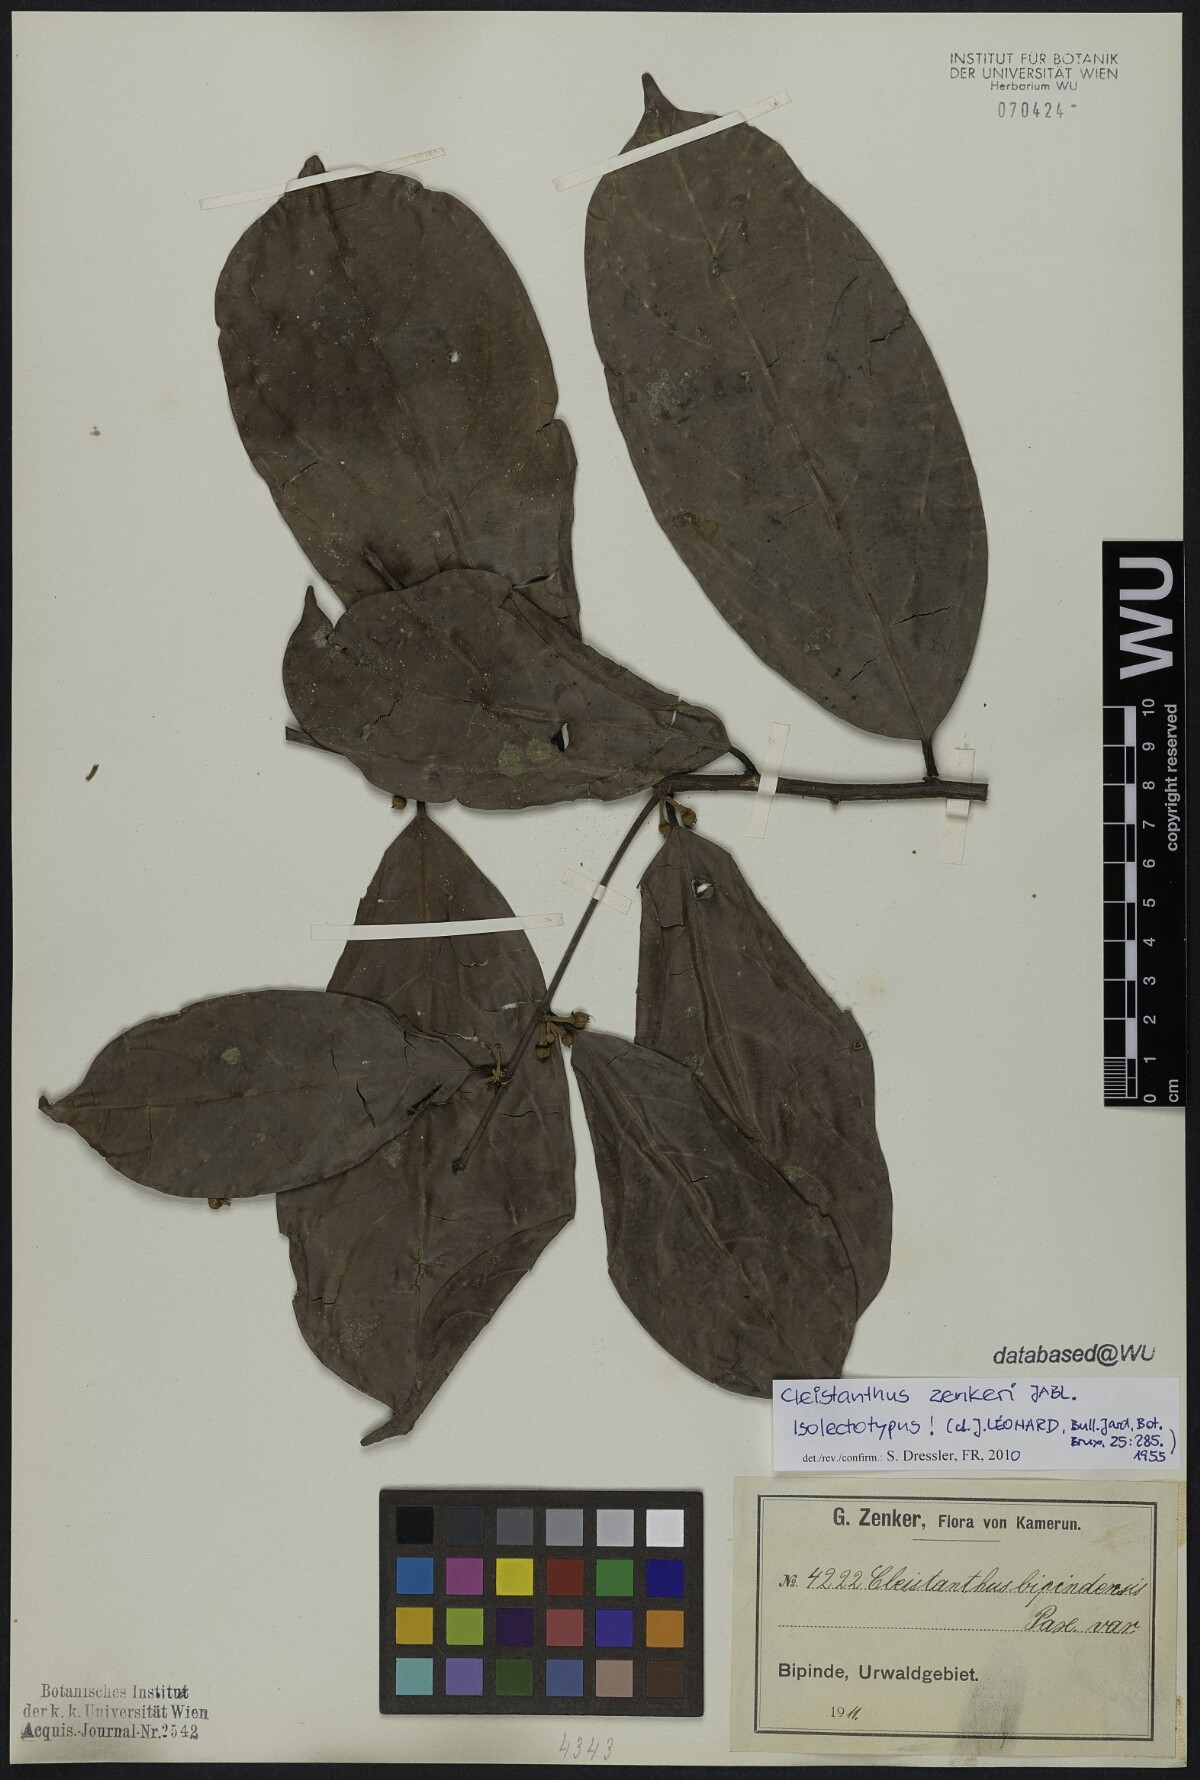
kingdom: Plantae
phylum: Tracheophyta
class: Magnoliopsida
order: Malpighiales
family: Phyllanthaceae
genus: Cleistanthus
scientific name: Cleistanthus zenkeri
